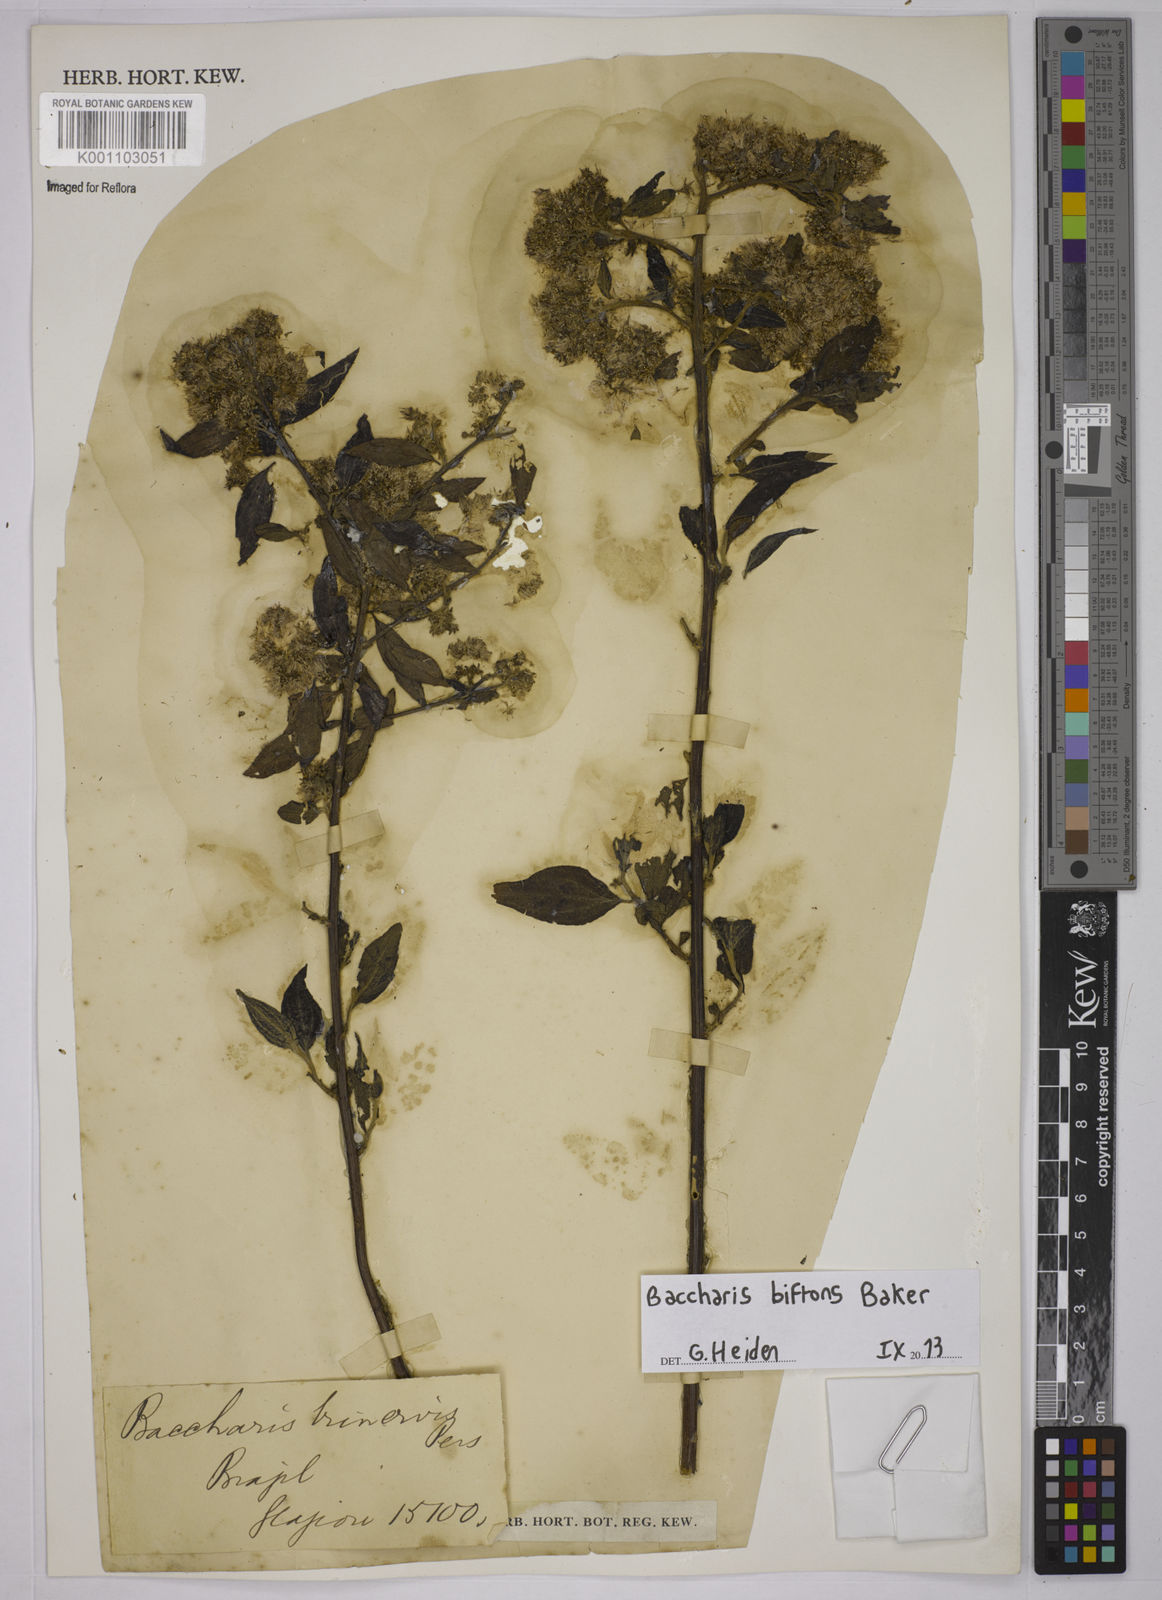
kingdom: Plantae
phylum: Tracheophyta
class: Magnoliopsida
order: Asterales
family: Asteraceae
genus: Baccharis
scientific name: Baccharis bifrons
